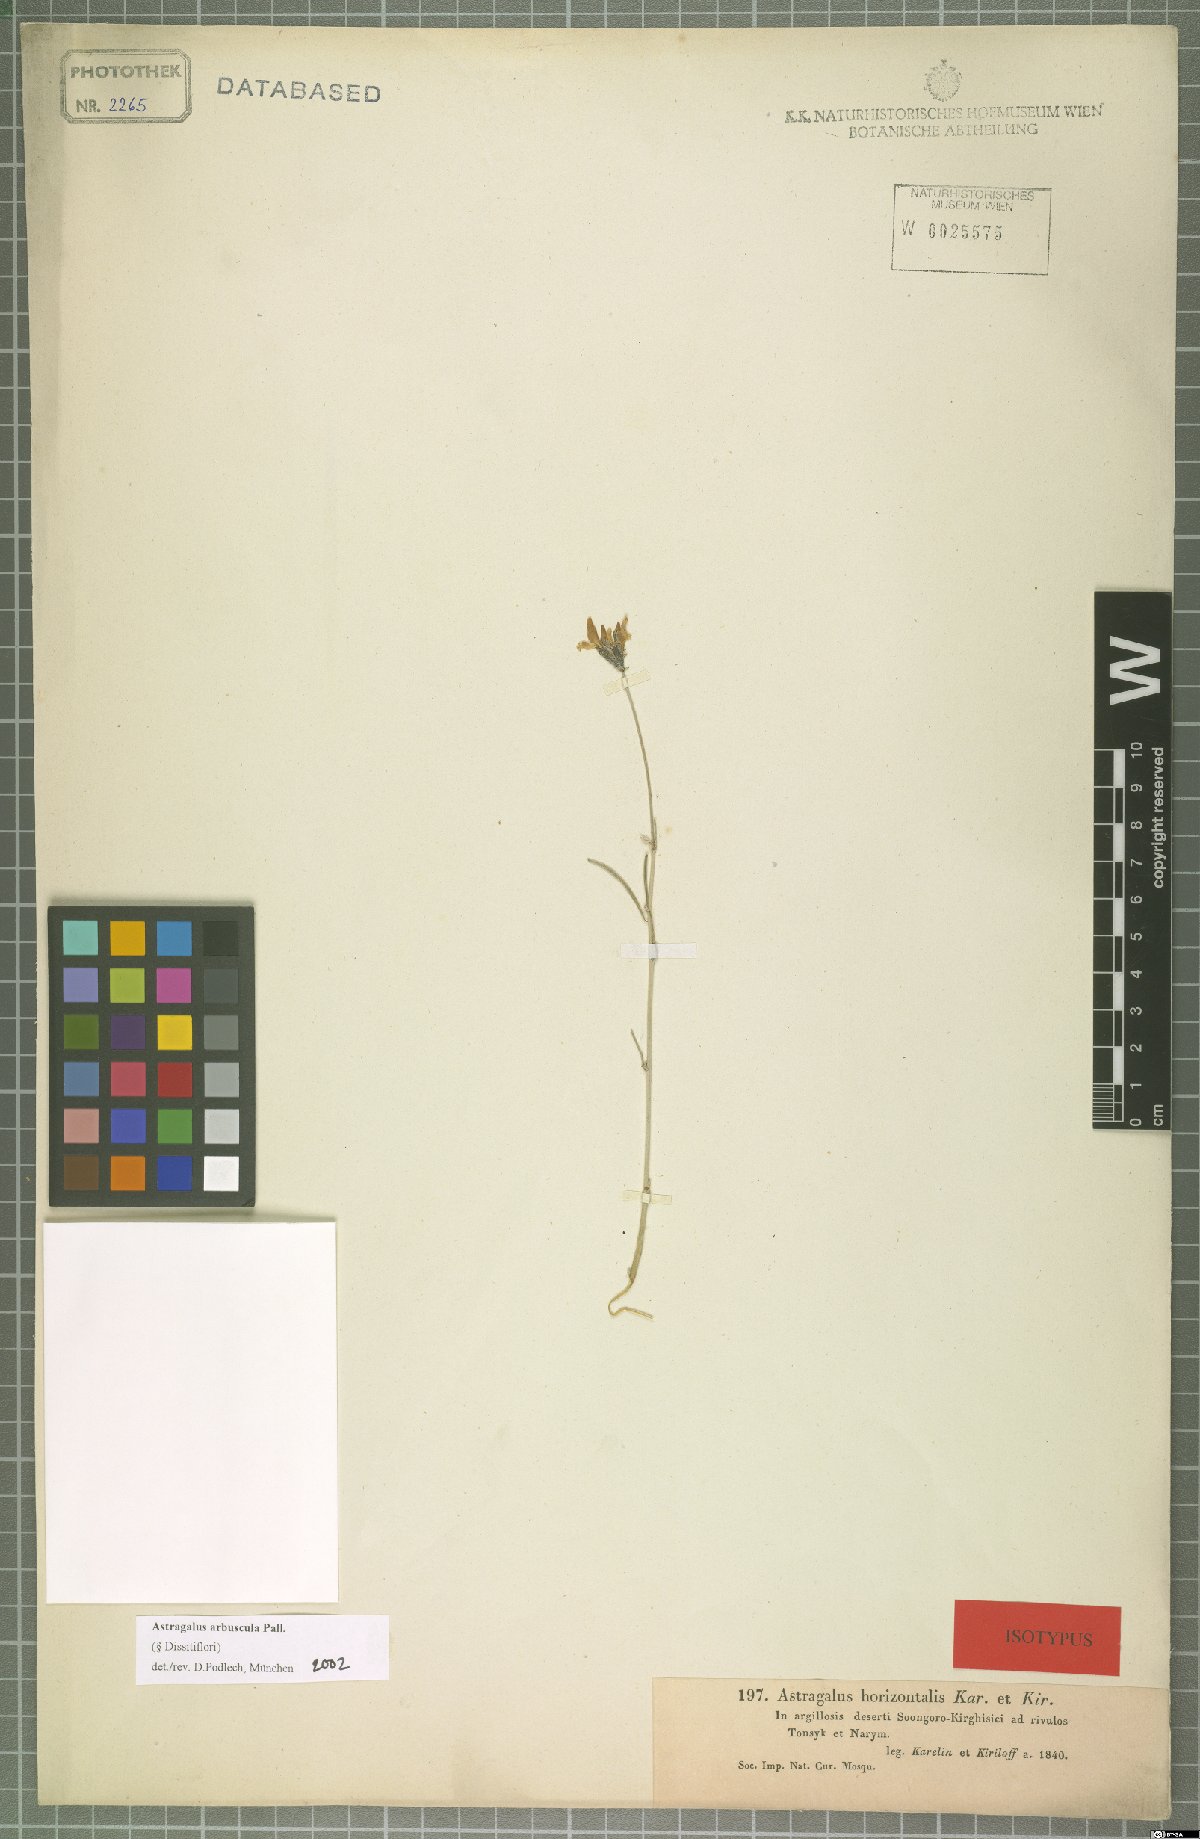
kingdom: Plantae
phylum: Tracheophyta
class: Magnoliopsida
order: Fabales
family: Fabaceae
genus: Astragalus
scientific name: Astragalus arbuscula
